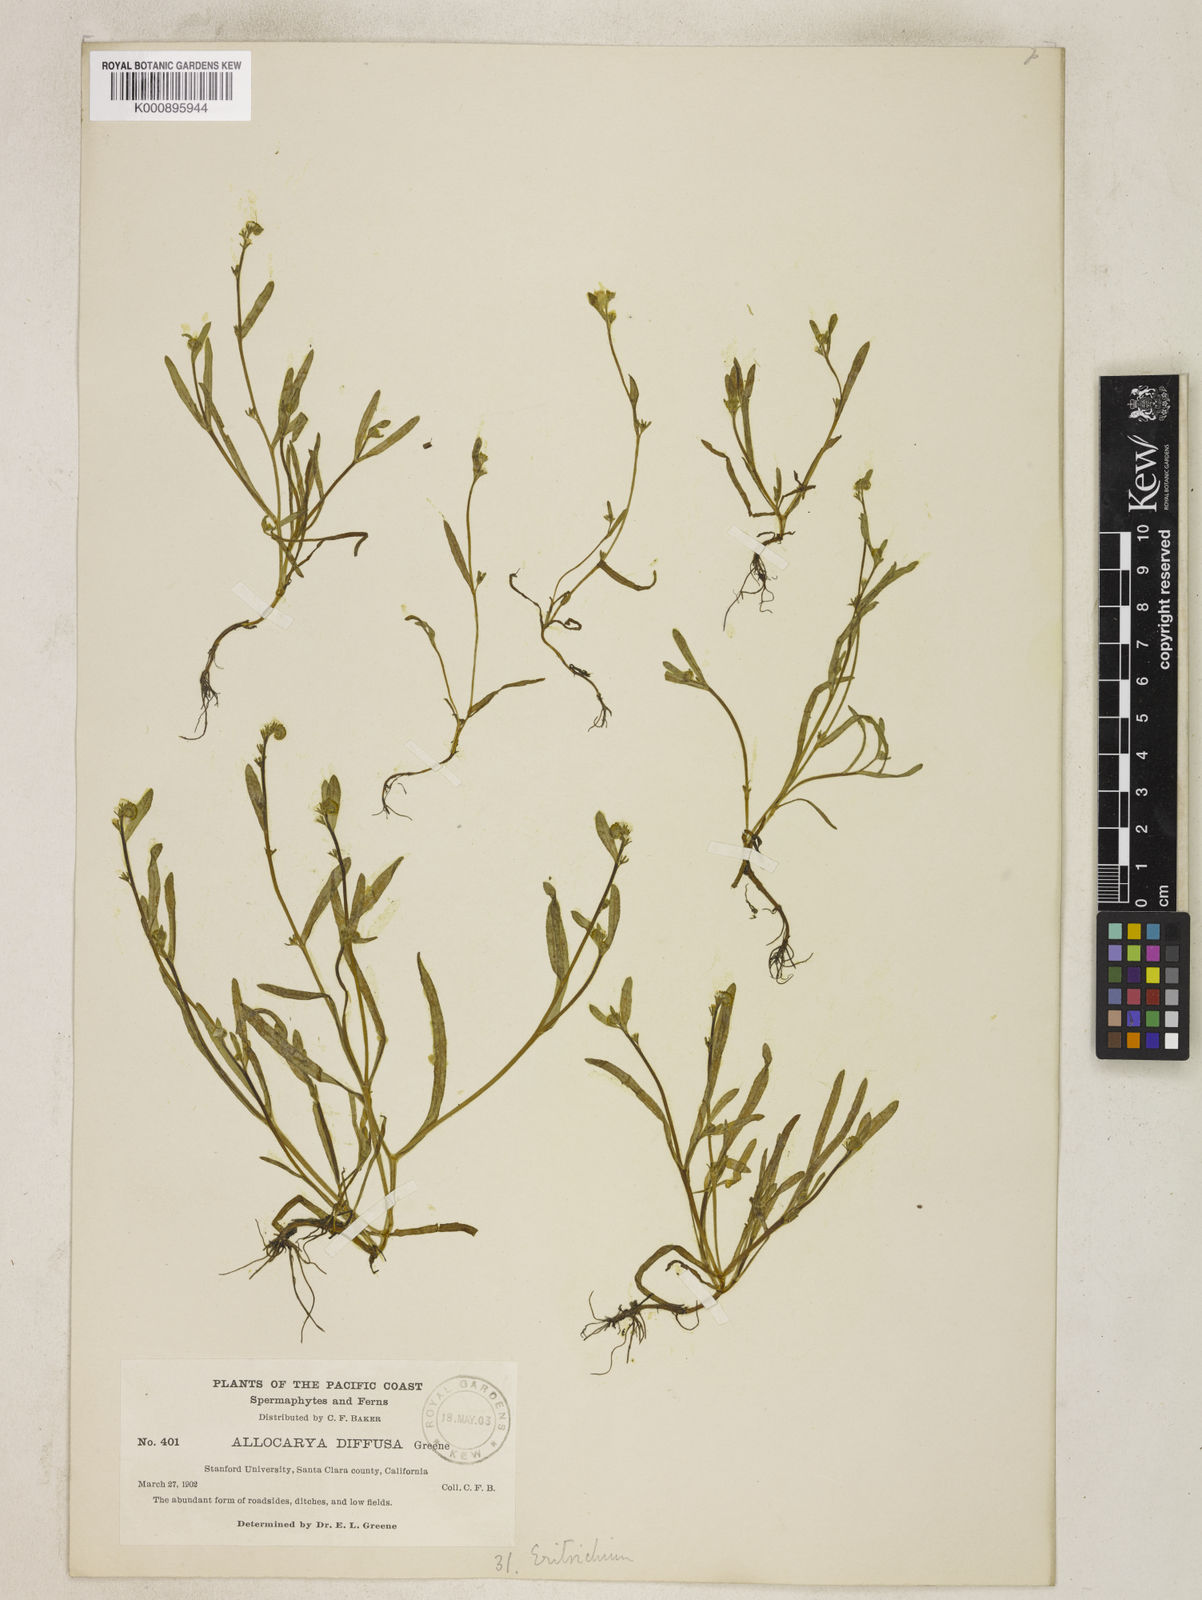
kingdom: Plantae
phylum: Tracheophyta
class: Magnoliopsida
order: Boraginales
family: Boraginaceae
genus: Plagiobothrys
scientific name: Plagiobothrys diffusus
